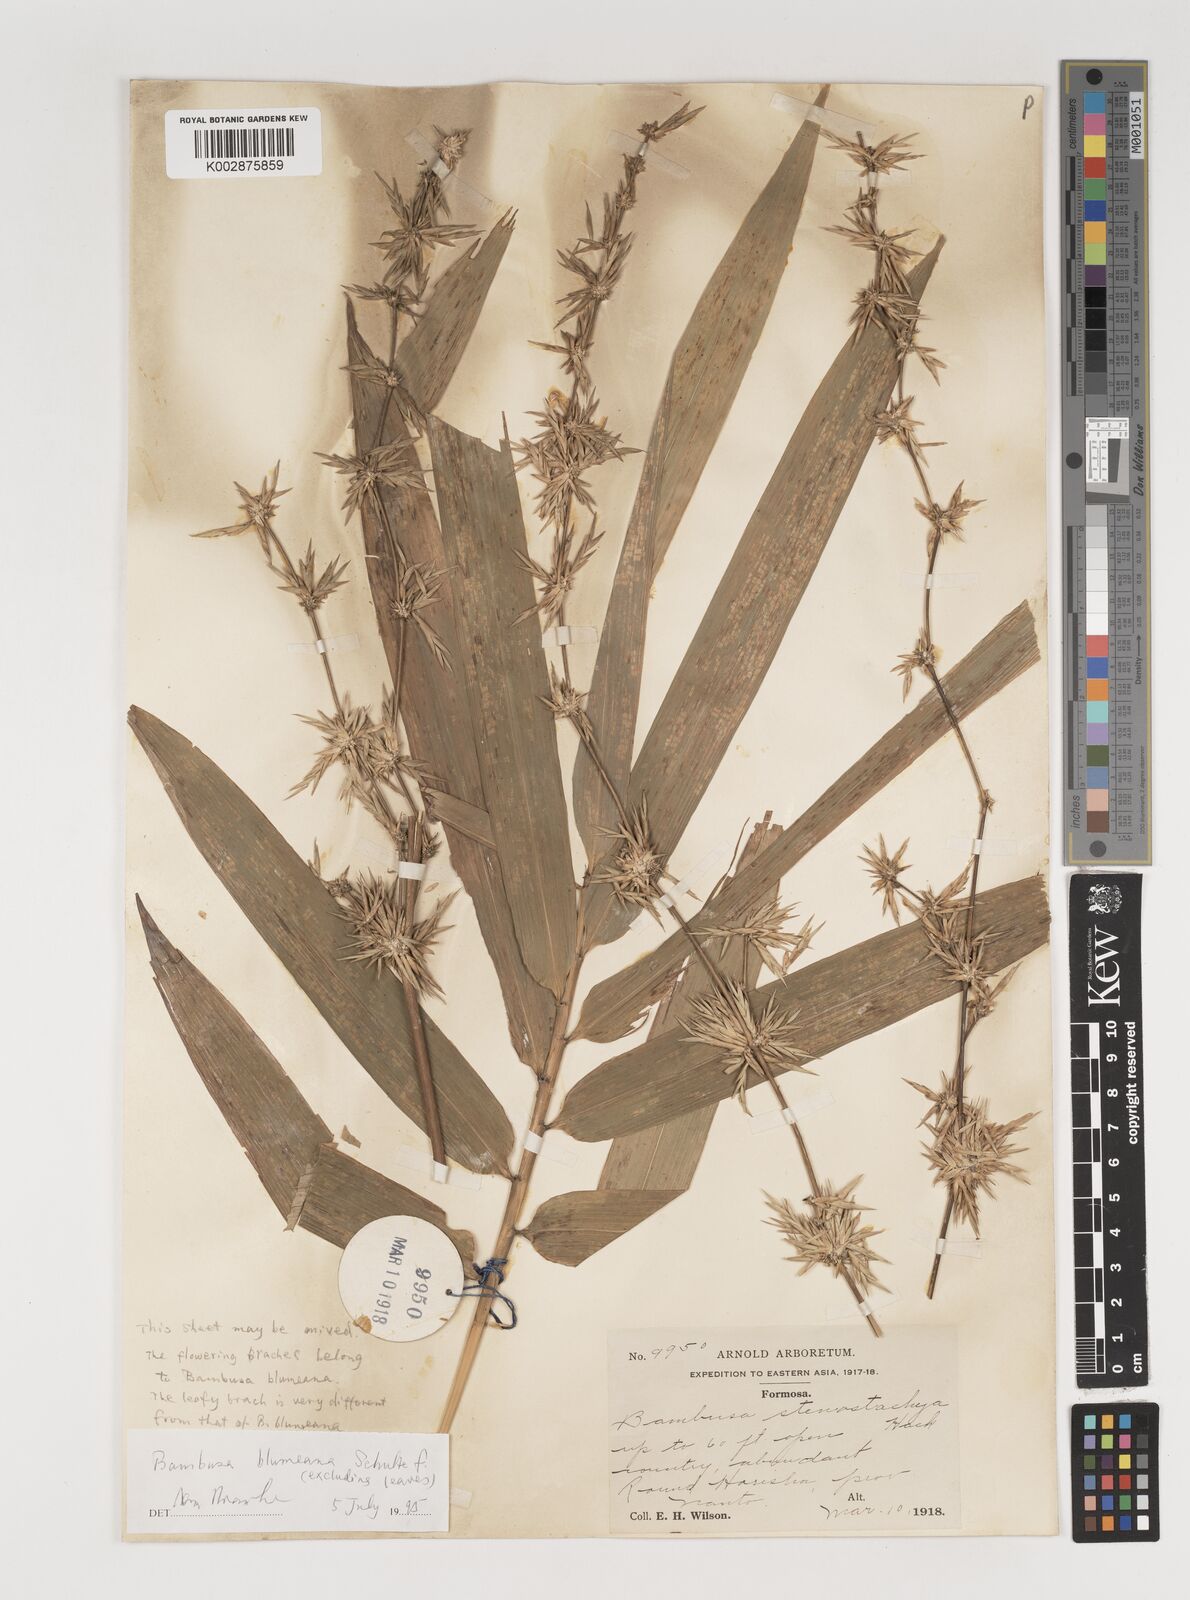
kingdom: Plantae
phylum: Tracheophyta
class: Liliopsida
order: Poales
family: Poaceae
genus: Bambusa
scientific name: Bambusa spinosa
